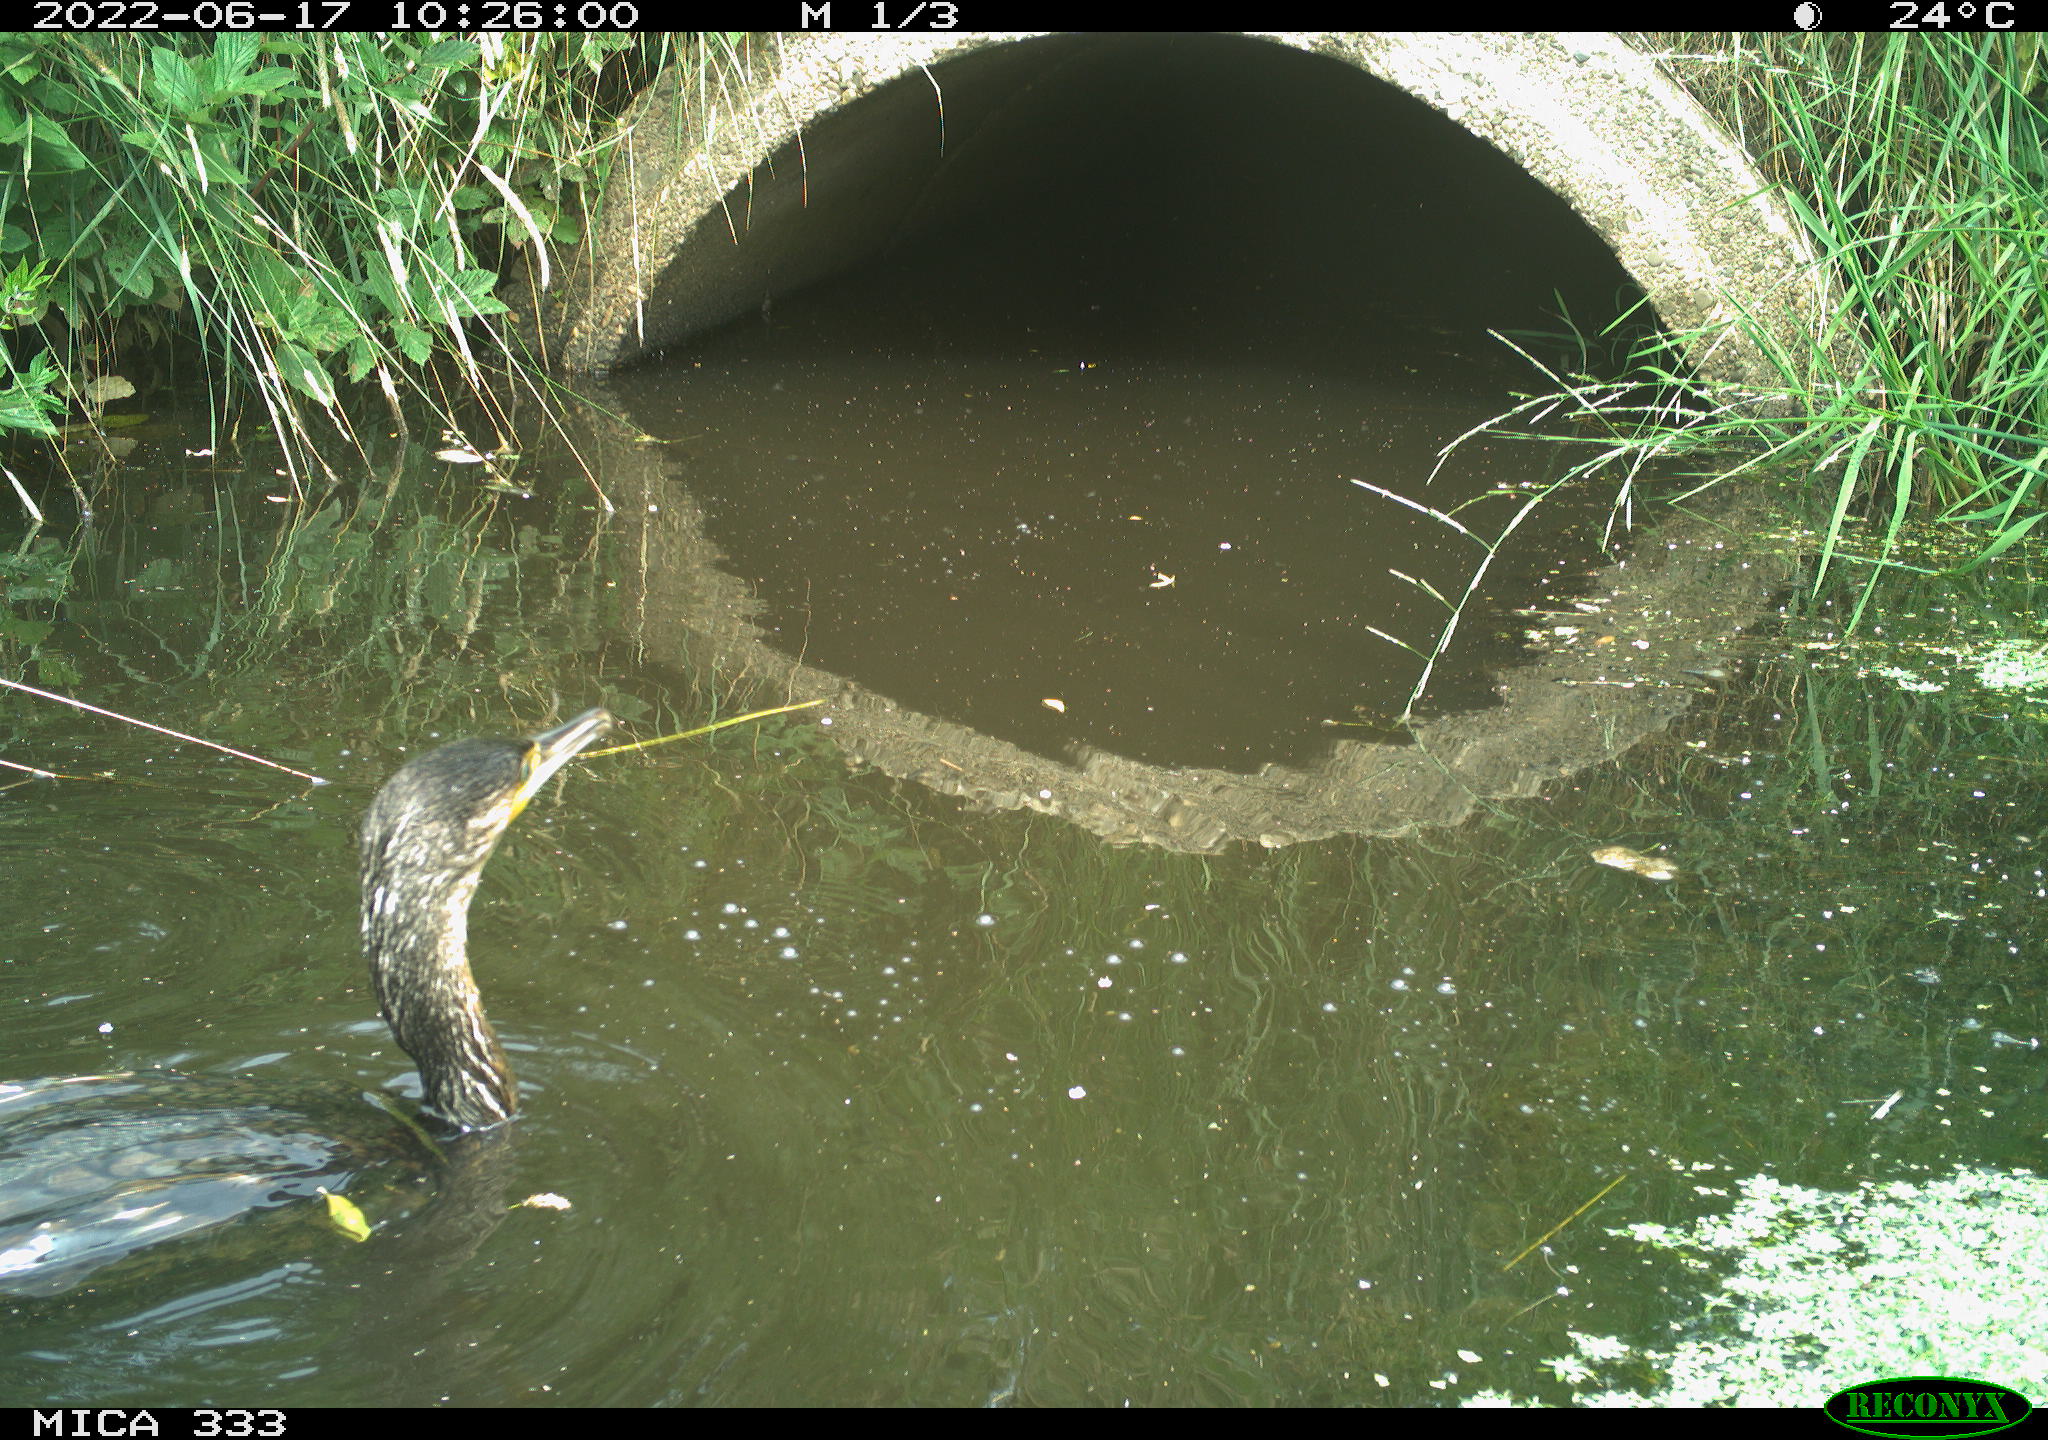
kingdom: Animalia
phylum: Chordata
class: Aves
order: Suliformes
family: Phalacrocoracidae
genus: Phalacrocorax
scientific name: Phalacrocorax carbo
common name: Great cormorant
